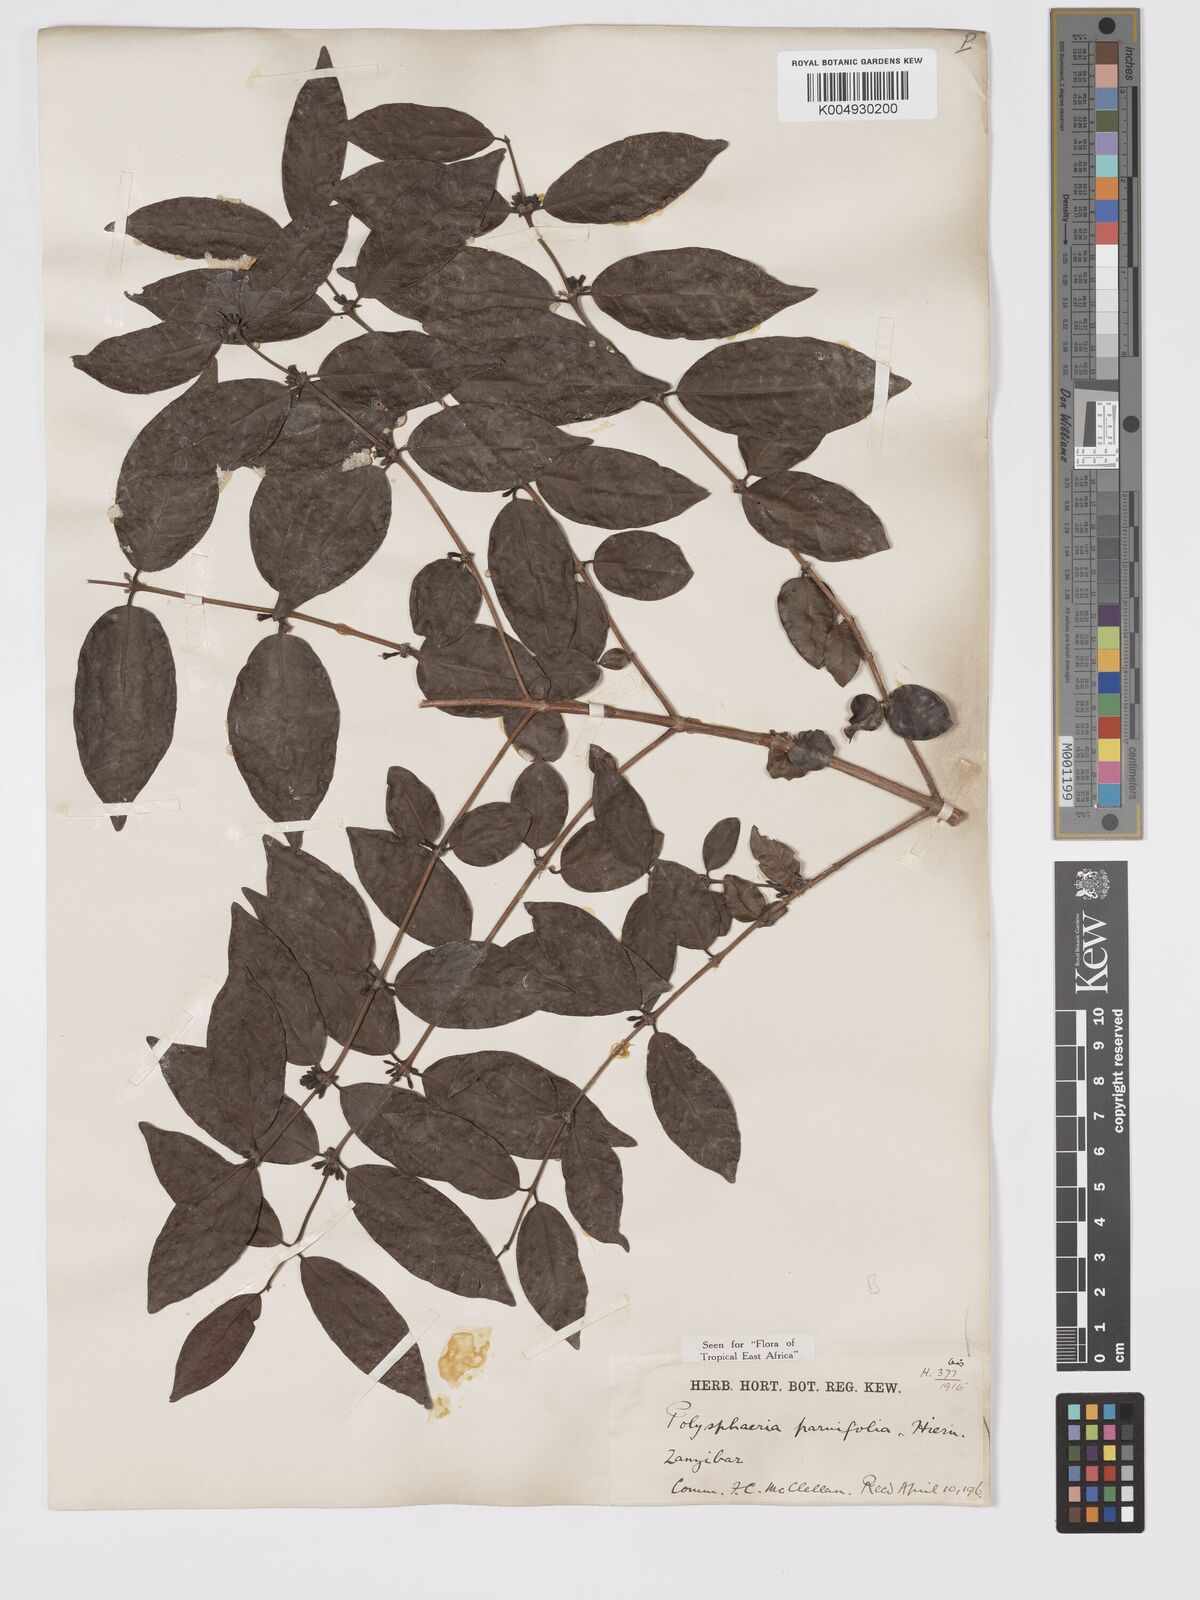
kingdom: Plantae
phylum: Tracheophyta
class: Magnoliopsida
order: Gentianales
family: Rubiaceae
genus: Polysphaeria
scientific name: Polysphaeria parvifolia
